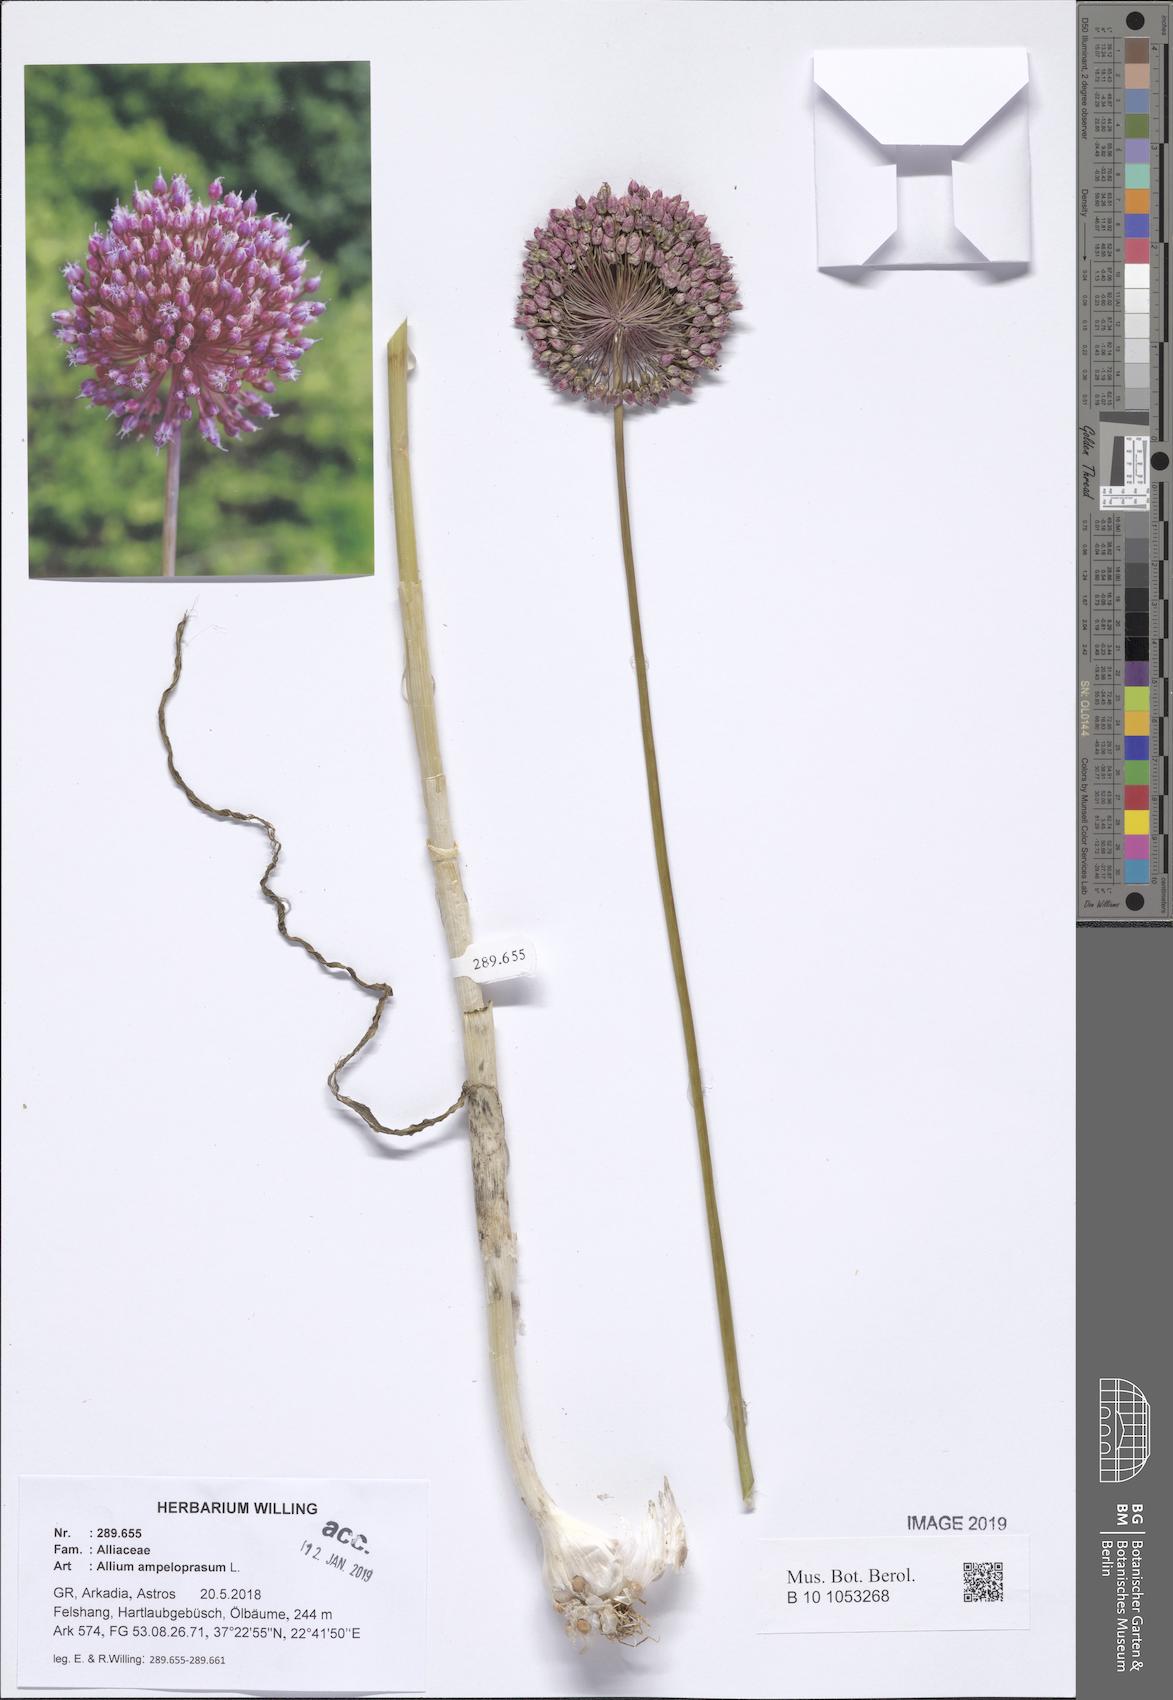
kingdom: Plantae
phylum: Tracheophyta
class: Liliopsida
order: Asparagales
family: Amaryllidaceae
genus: Allium
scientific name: Allium ampeloprasum
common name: Wild leek
